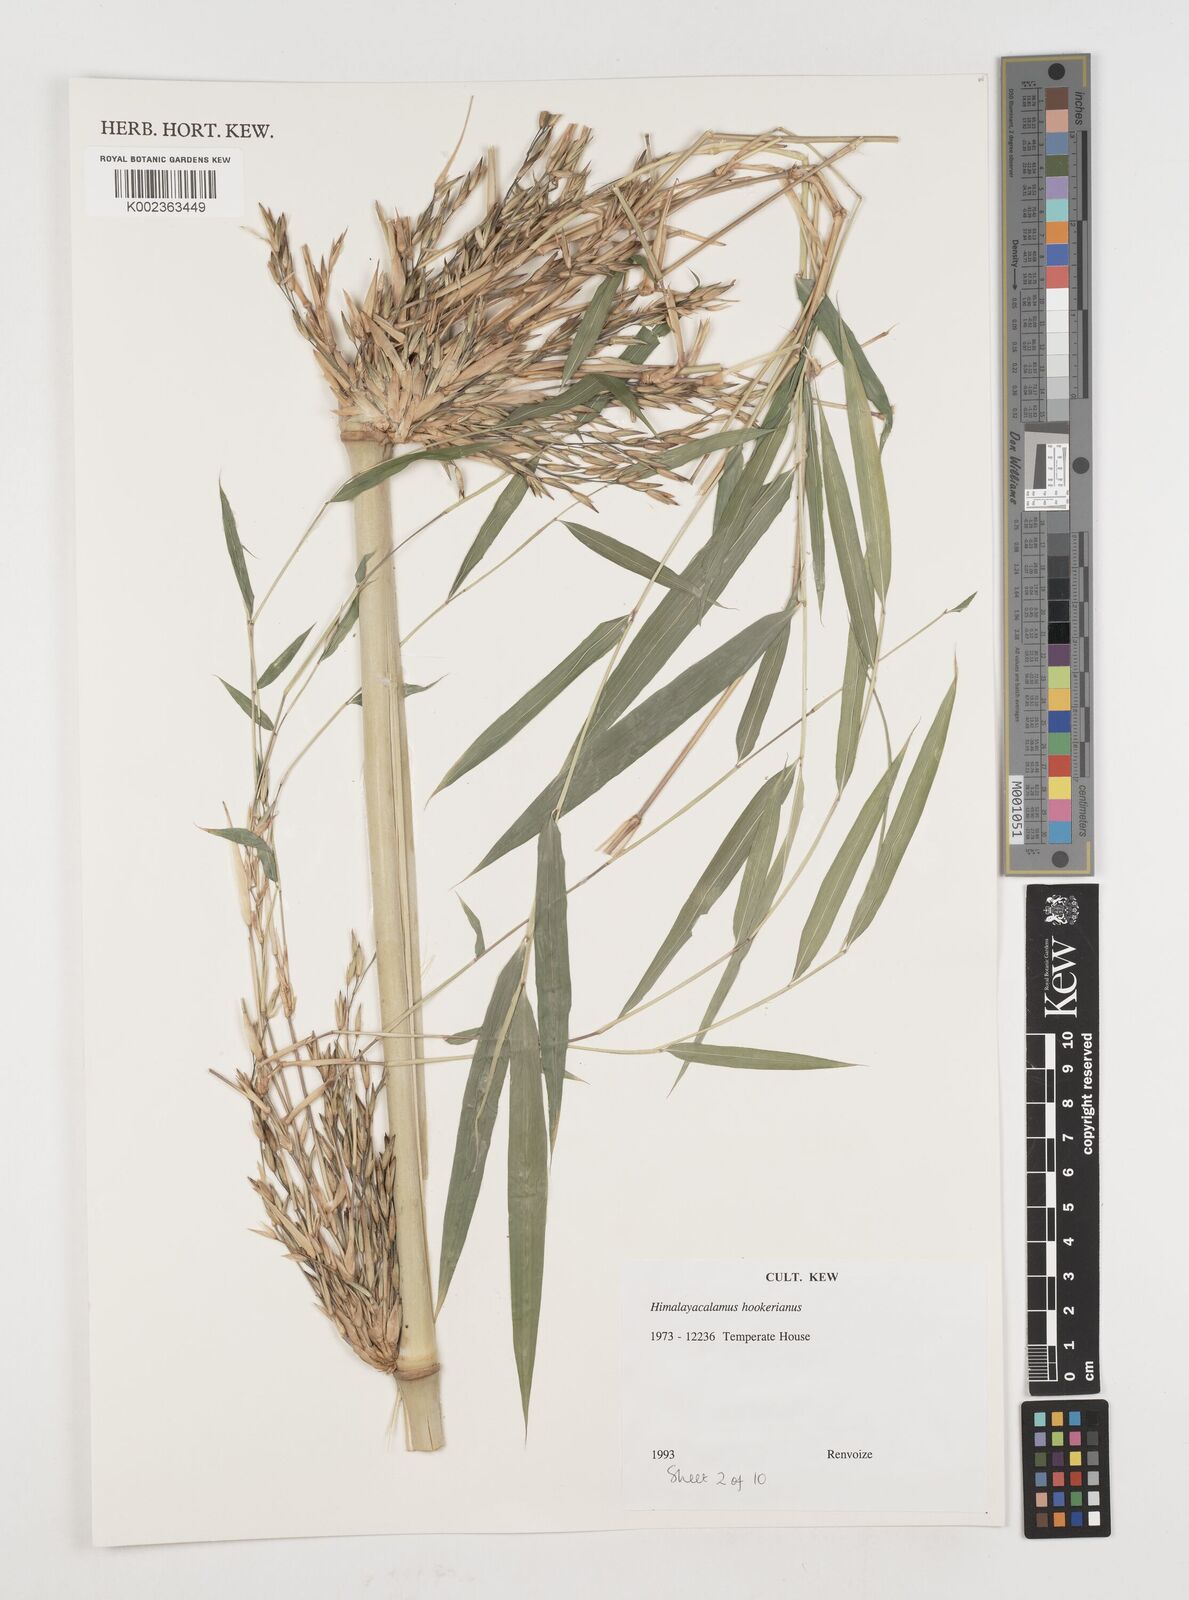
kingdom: Plantae
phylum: Tracheophyta
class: Liliopsida
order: Poales
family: Poaceae
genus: Himalayacalamus
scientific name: Himalayacalamus hookerianus
